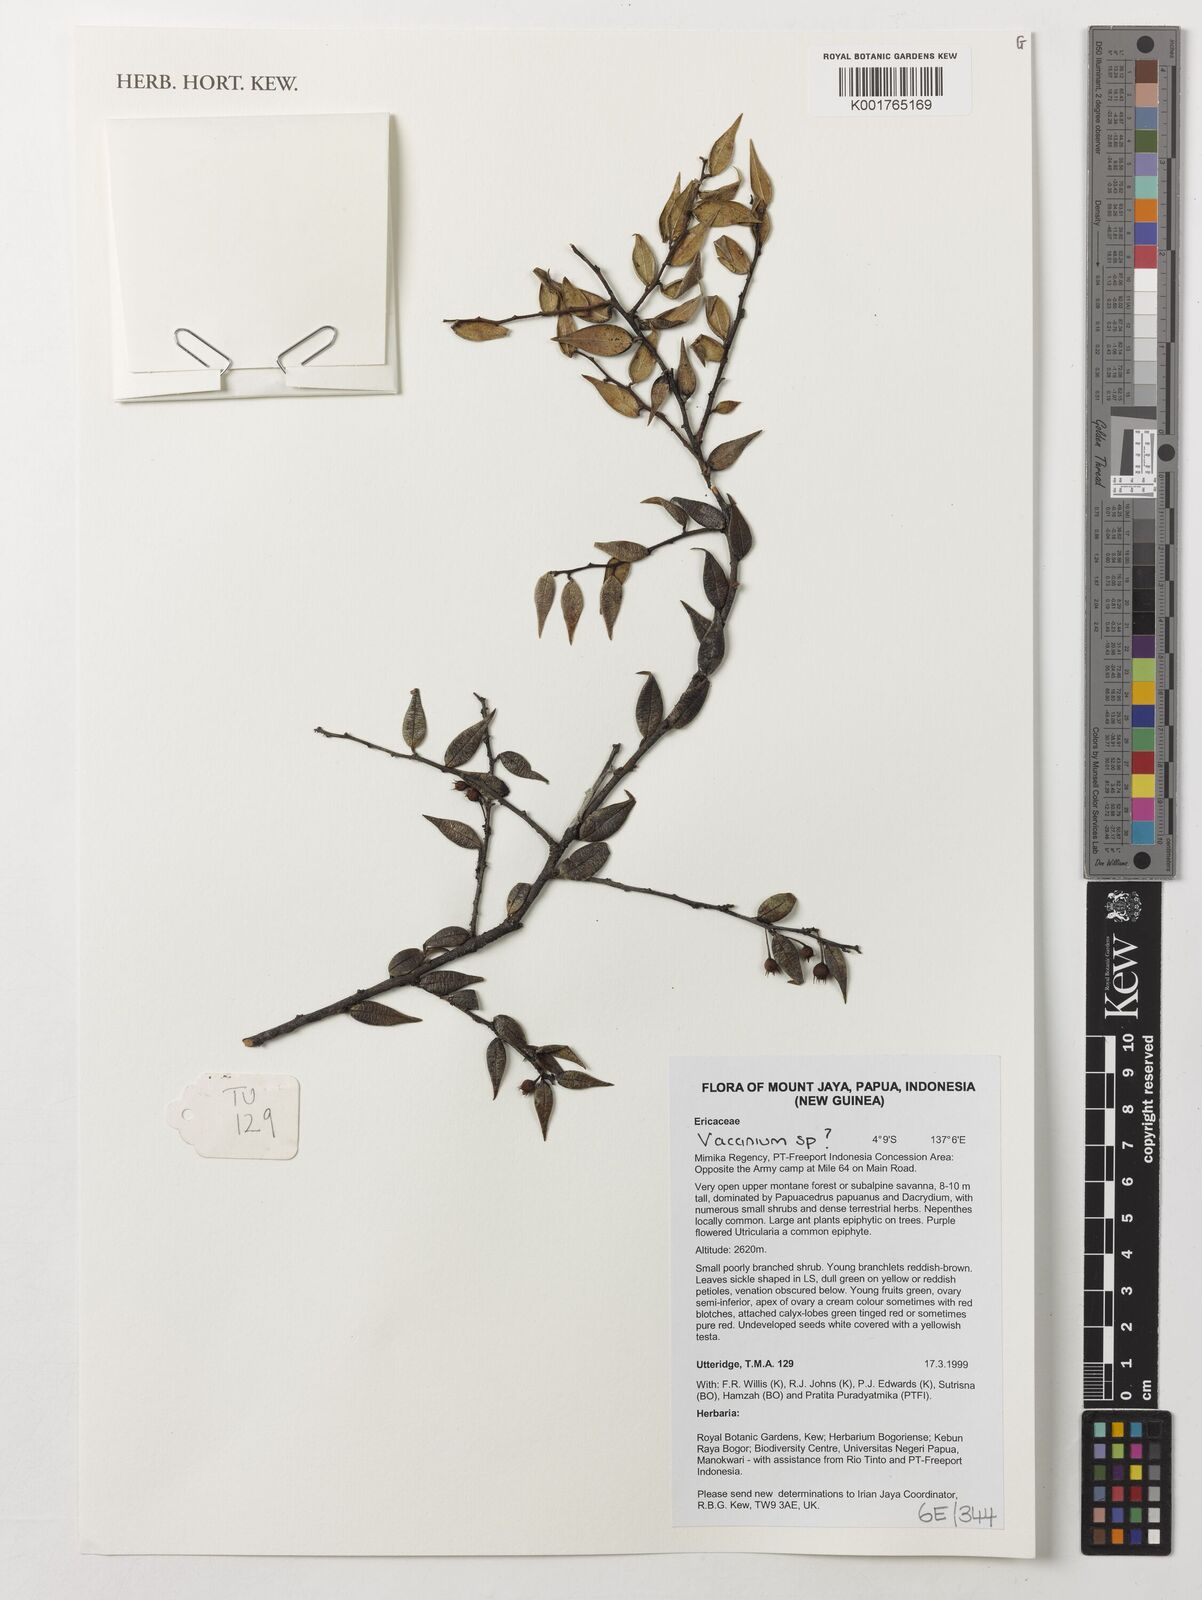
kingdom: Plantae
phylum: Tracheophyta
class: Magnoliopsida
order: Ericales
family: Ericaceae
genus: Vaccinium
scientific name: Vaccinium
